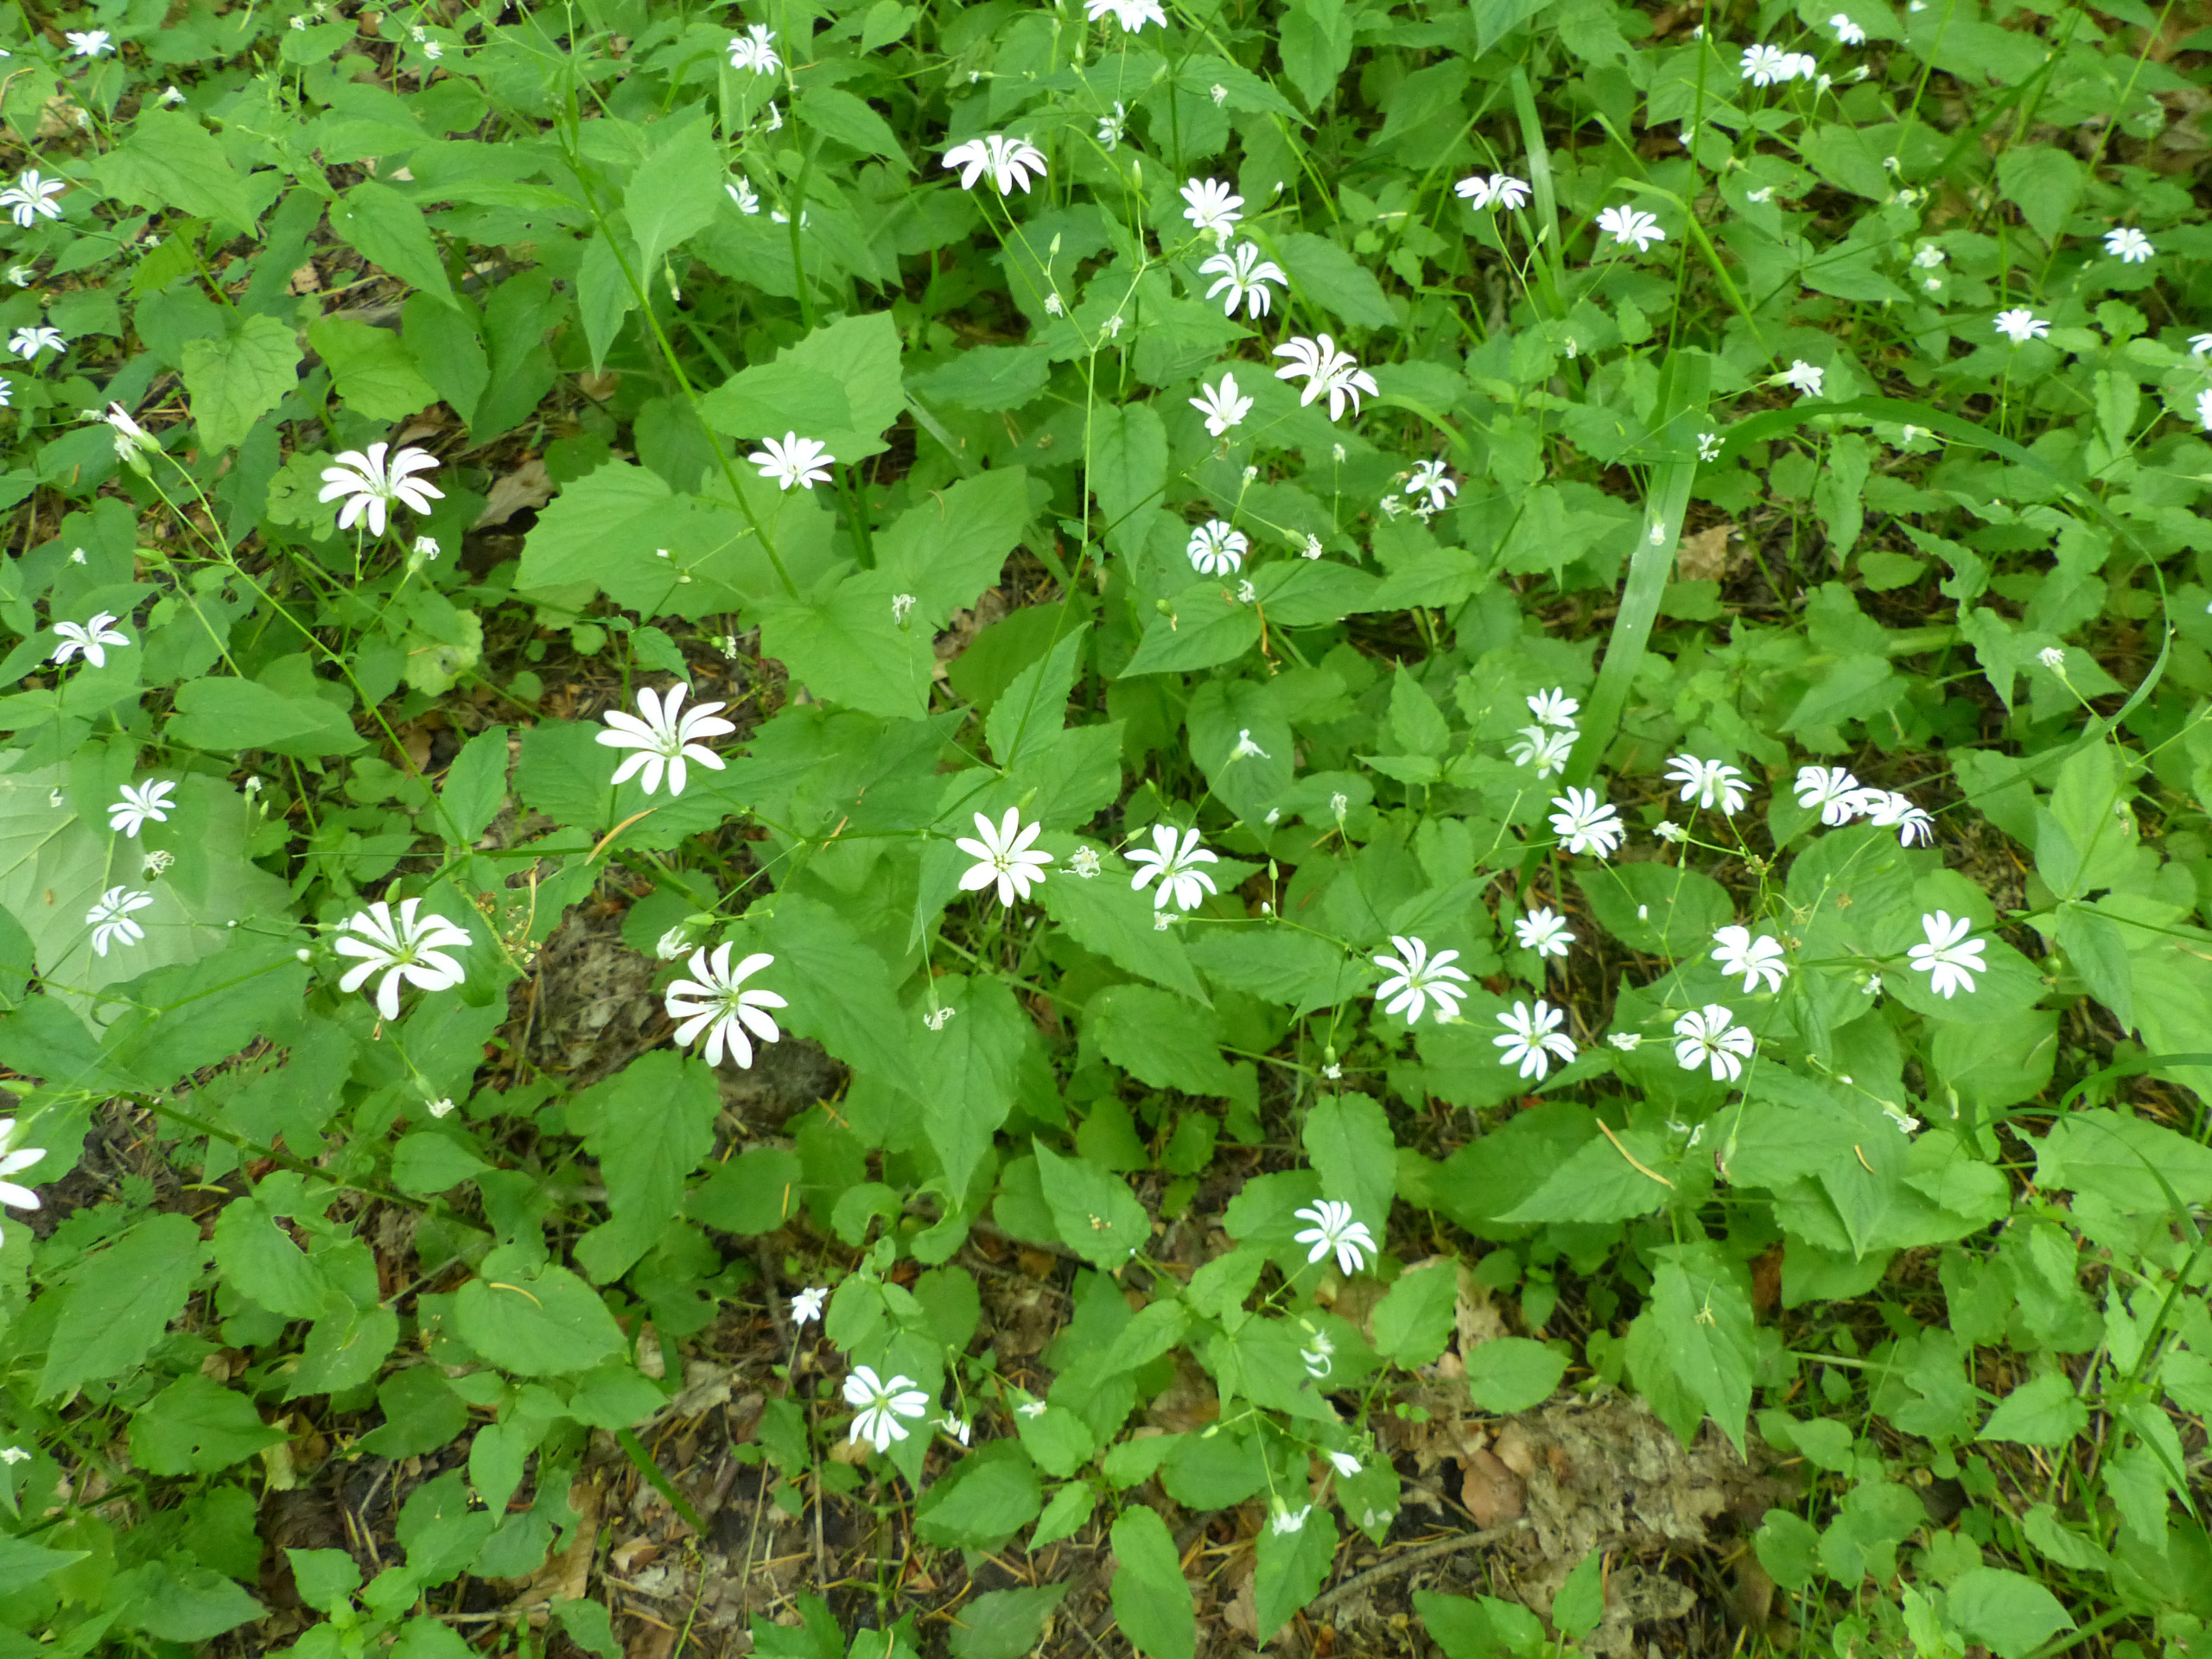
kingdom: Plantae
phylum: Tracheophyta
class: Magnoliopsida
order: Caryophyllales
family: Caryophyllaceae
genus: Stellaria
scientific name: Stellaria glochidisperma
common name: Sydlig lund-fladstjerne
